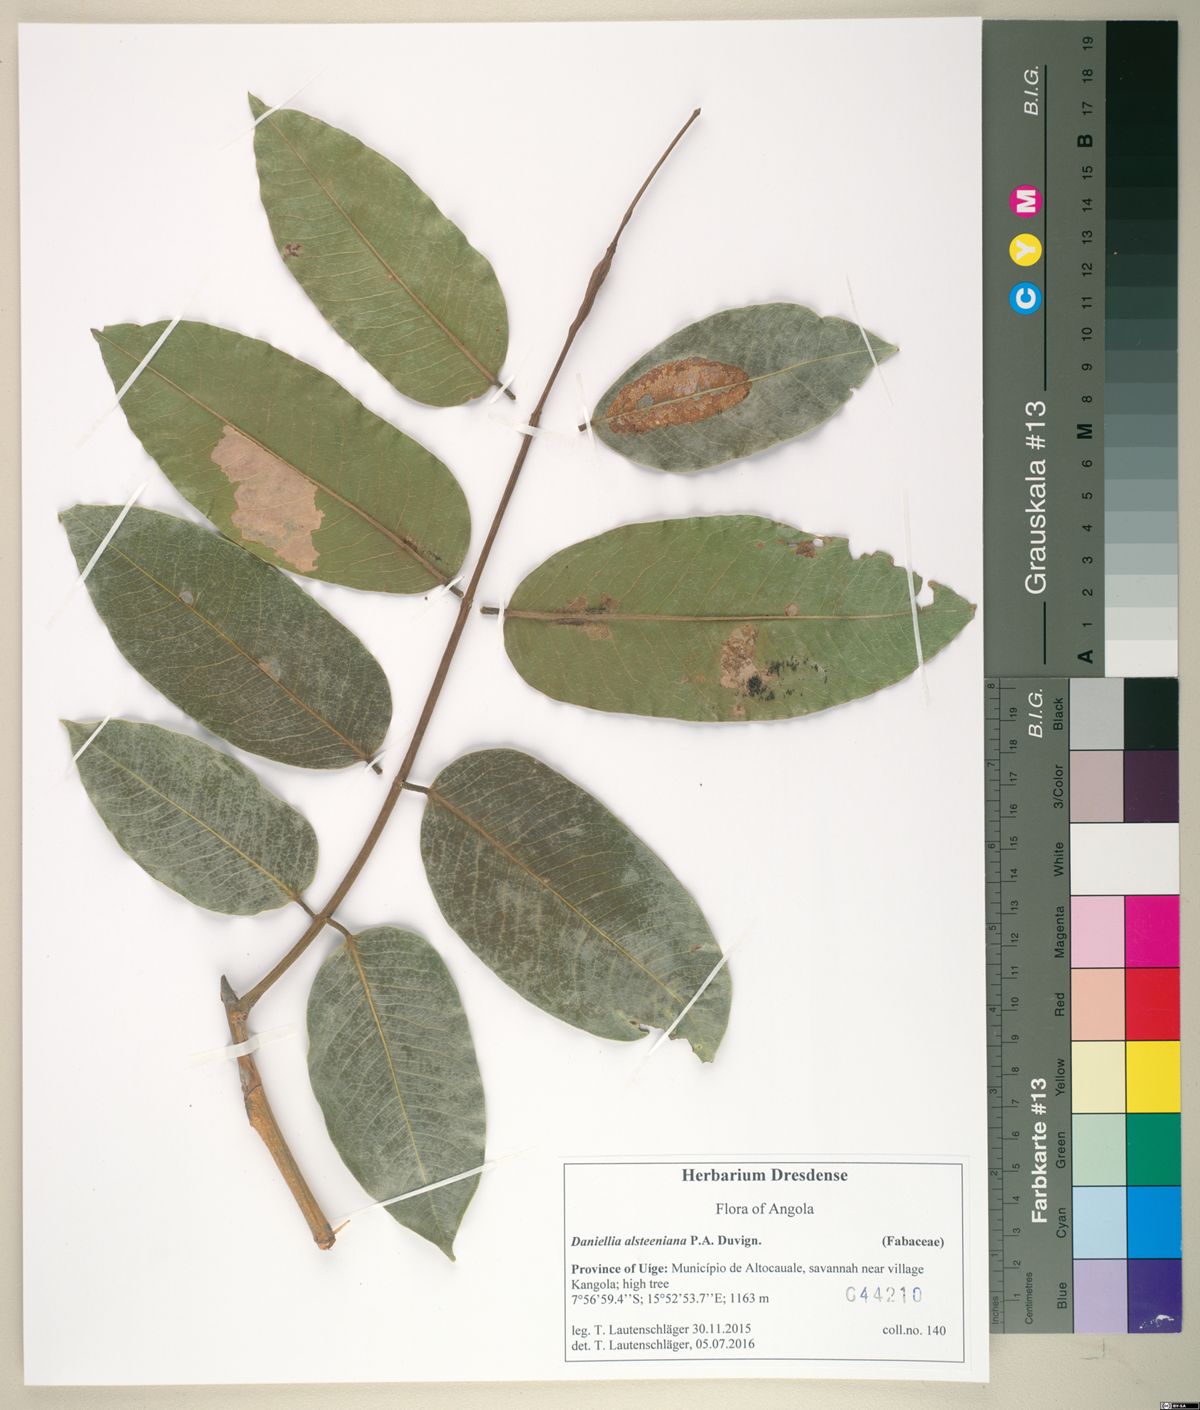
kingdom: Plantae
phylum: Tracheophyta
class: Magnoliopsida
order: Fabales
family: Fabaceae
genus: Daniellia
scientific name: Daniellia alsteeniana
